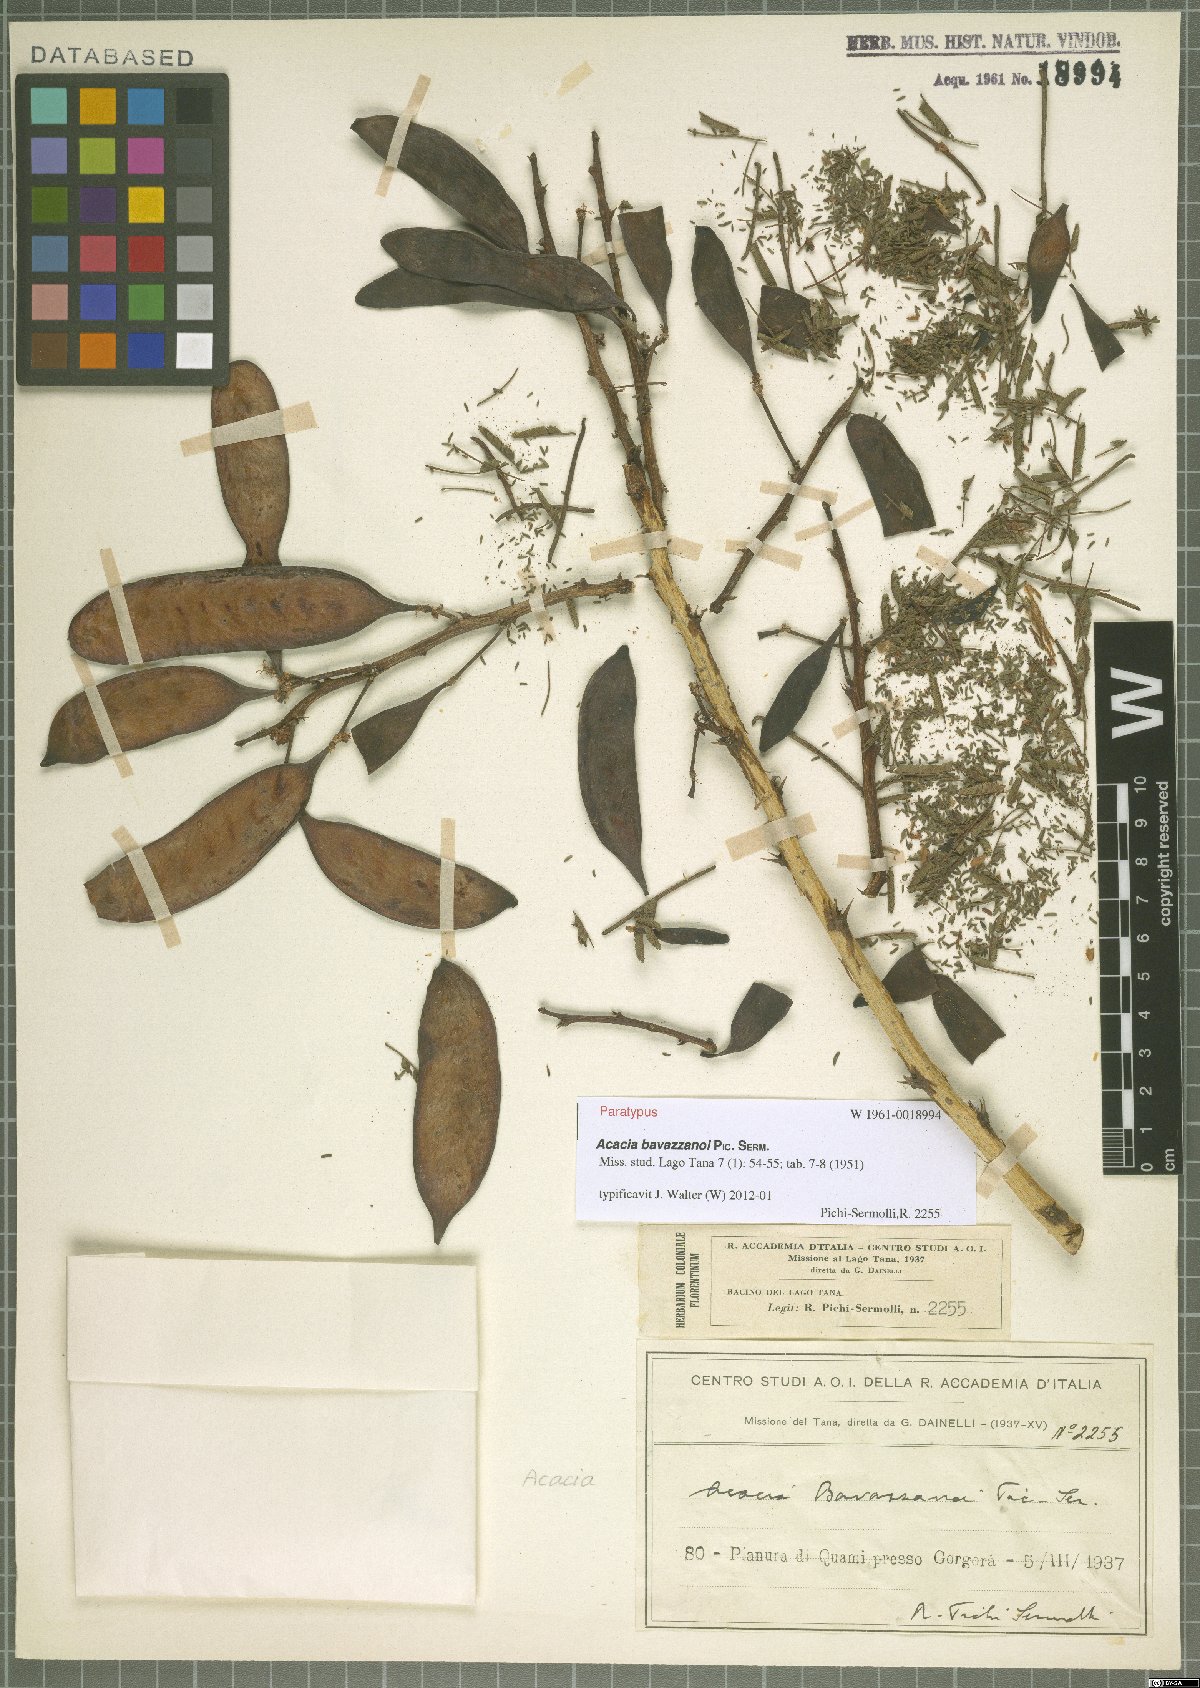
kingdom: Plantae
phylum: Tracheophyta
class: Magnoliopsida
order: Fabales
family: Fabaceae
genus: Vachellia
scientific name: Vachellia bavazzanoi
